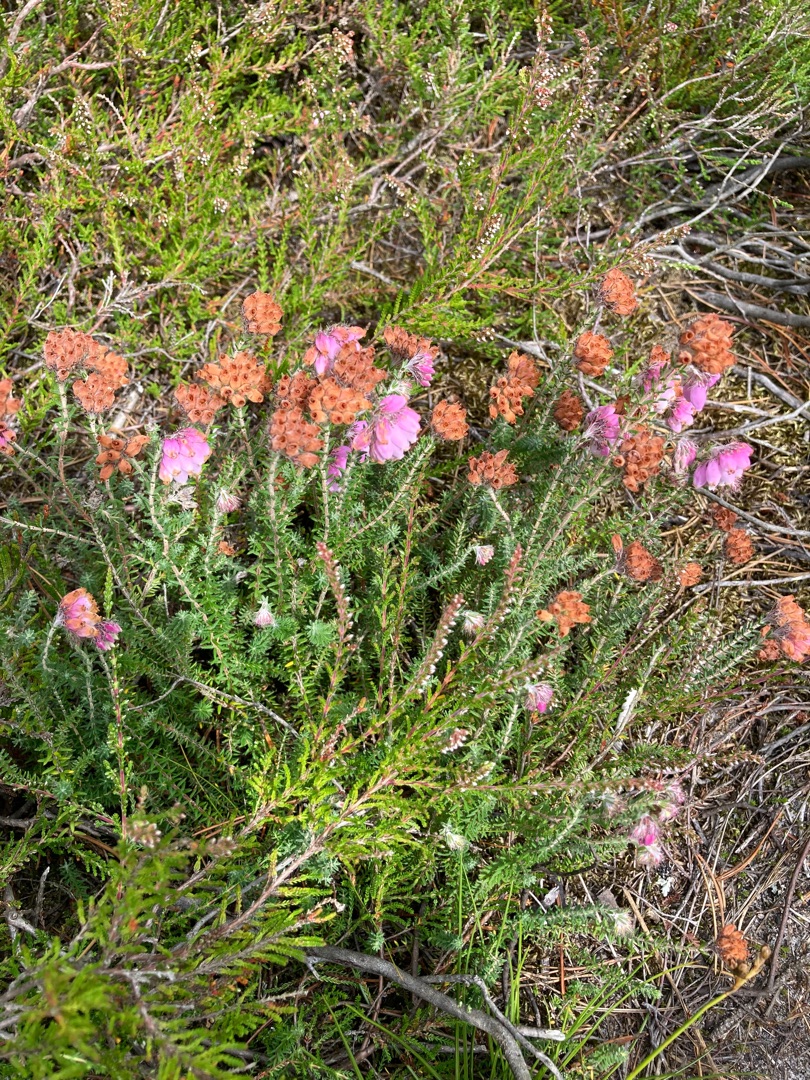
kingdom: Plantae
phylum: Tracheophyta
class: Magnoliopsida
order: Ericales
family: Ericaceae
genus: Erica
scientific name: Erica tetralix
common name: Klokkelyng
